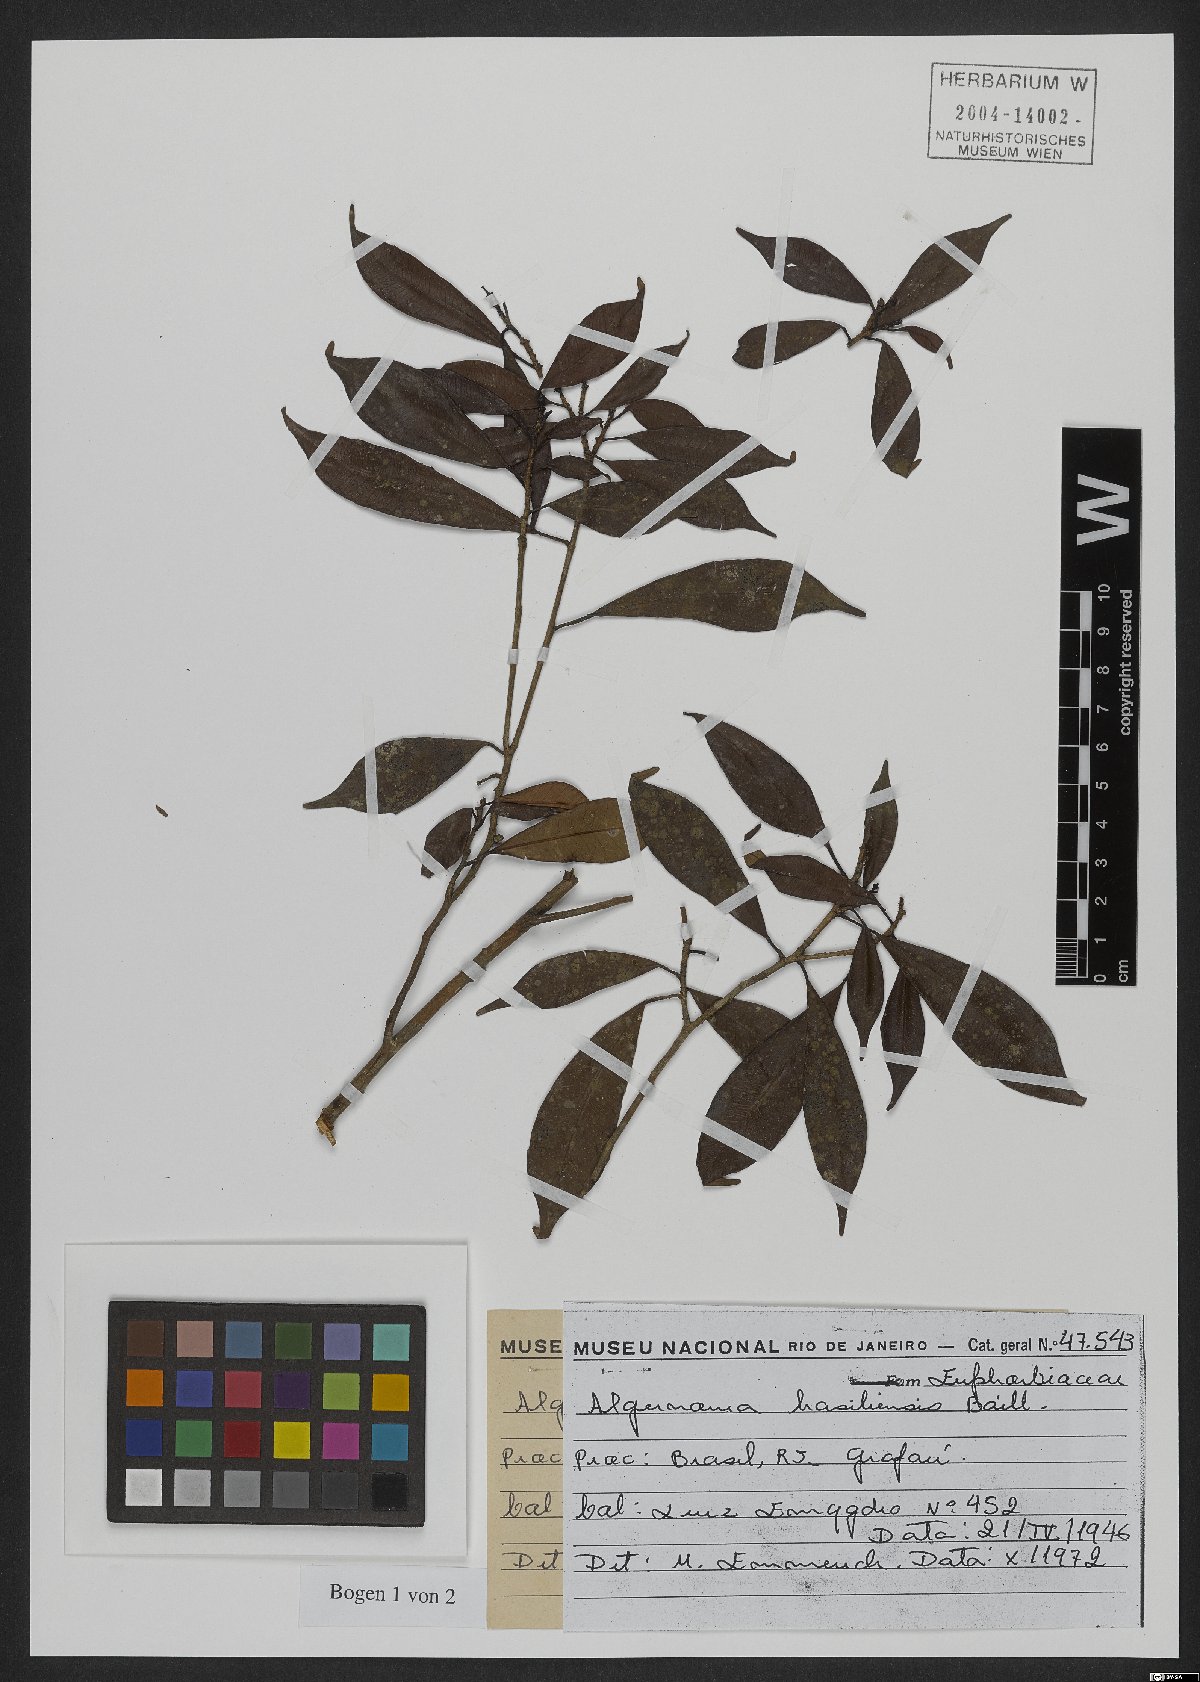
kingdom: Plantae
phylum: Tracheophyta
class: Magnoliopsida
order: Malpighiales
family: Euphorbiaceae
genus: Algernonia
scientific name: Algernonia brasiliensis
